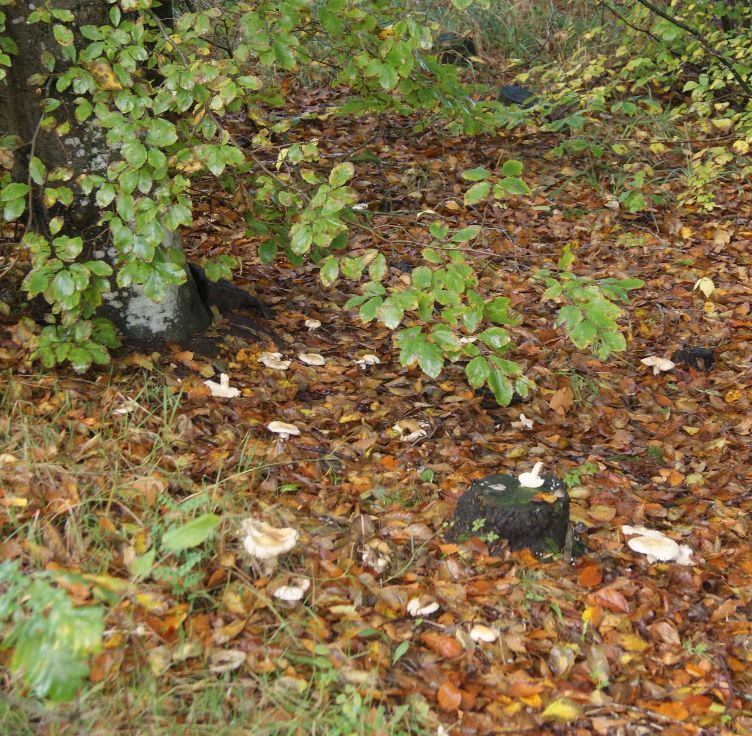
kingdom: Fungi
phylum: Basidiomycota
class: Agaricomycetes
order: Russulales
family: Russulaceae
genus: Russula
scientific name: Russula fellea
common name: galde-skørhat
